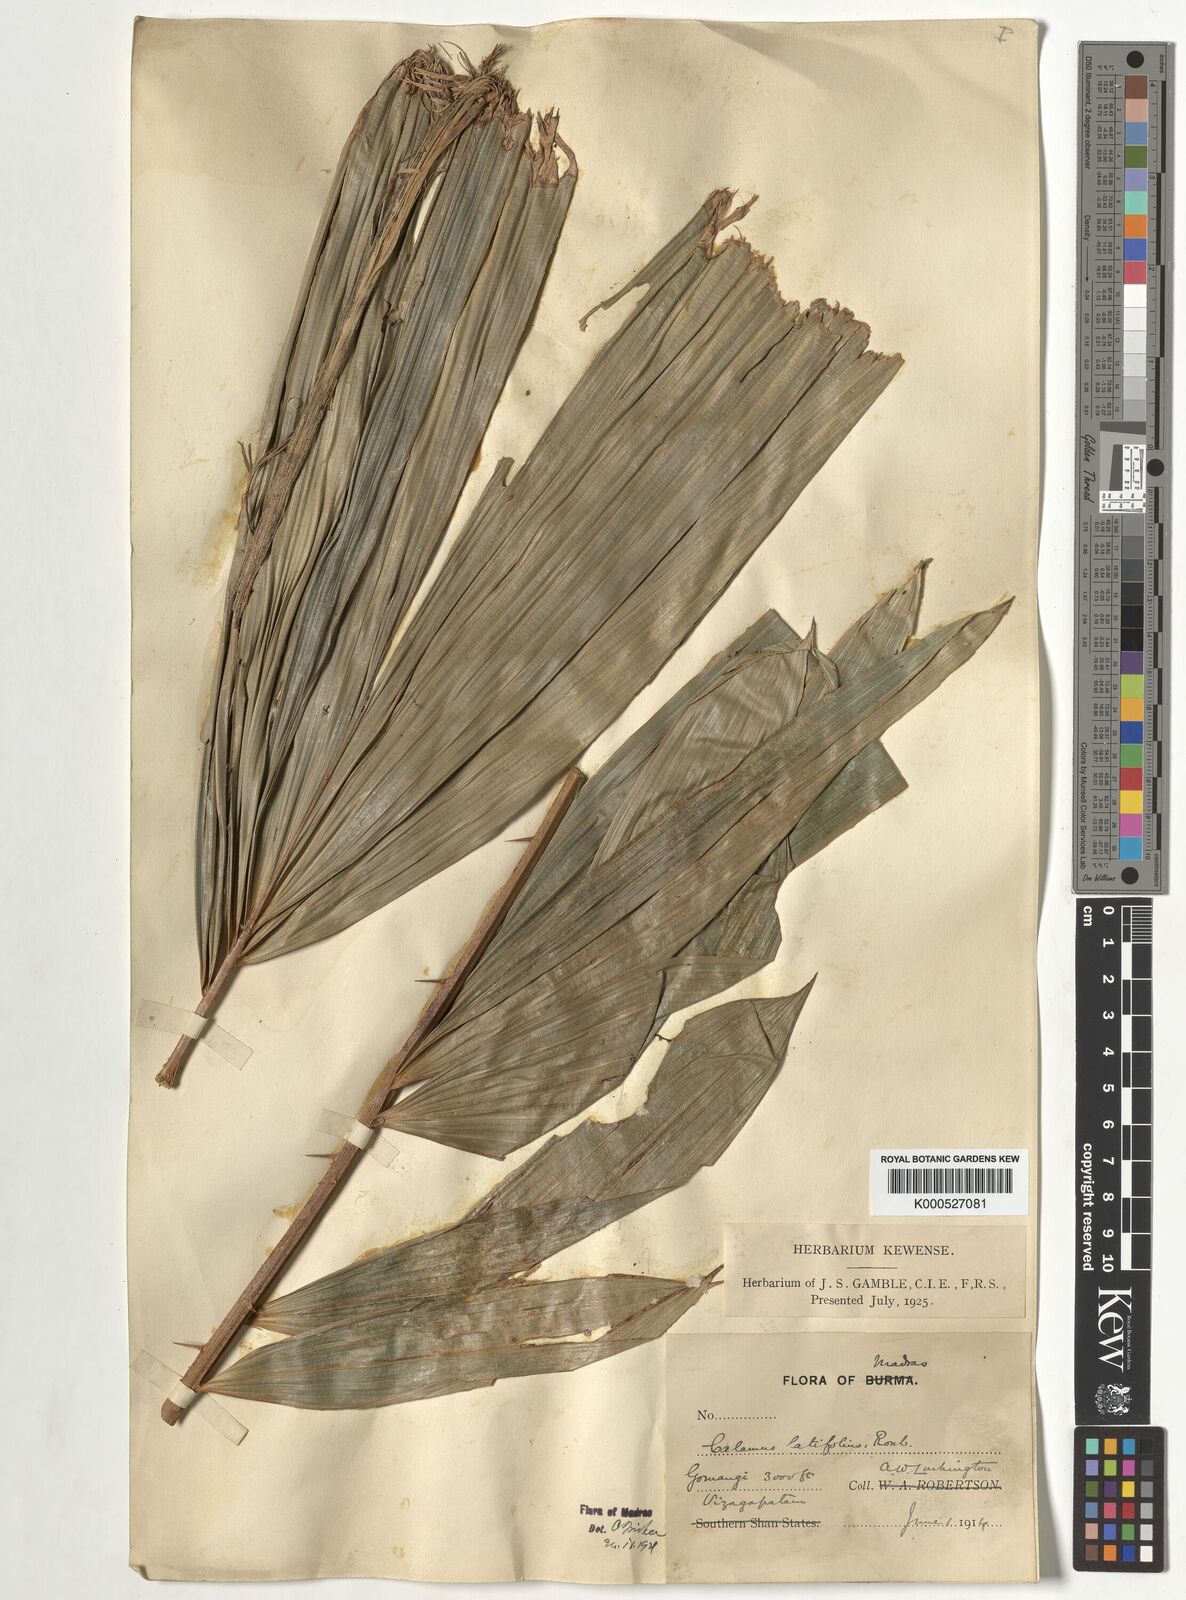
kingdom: Plantae
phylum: Tracheophyta
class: Liliopsida
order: Arecales
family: Arecaceae
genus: Calamus
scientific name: Calamus latifolius
